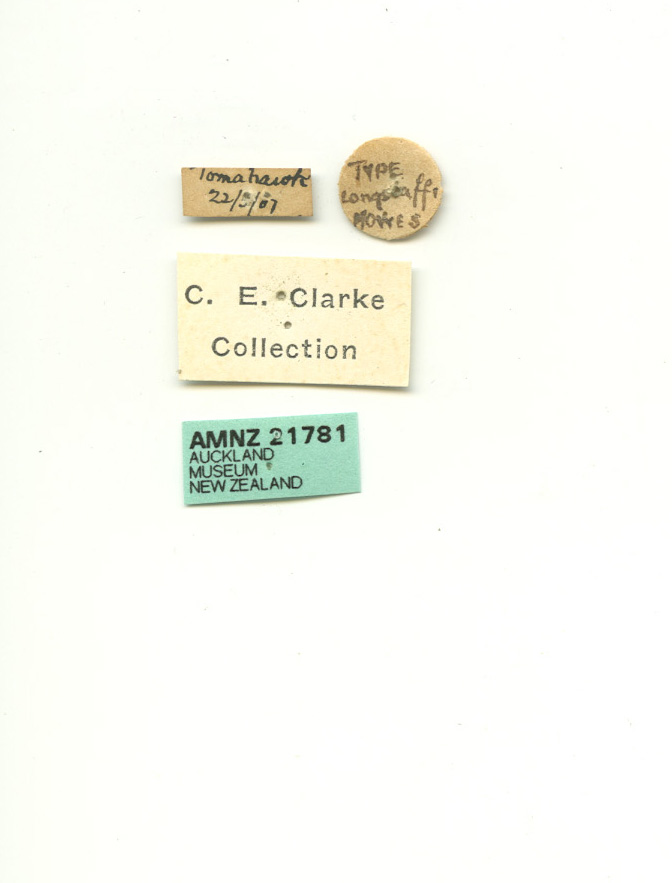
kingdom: Animalia
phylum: Arthropoda
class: Insecta
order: Lepidoptera
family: Noctuidae
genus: Physetica
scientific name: Physetica longstaffii
